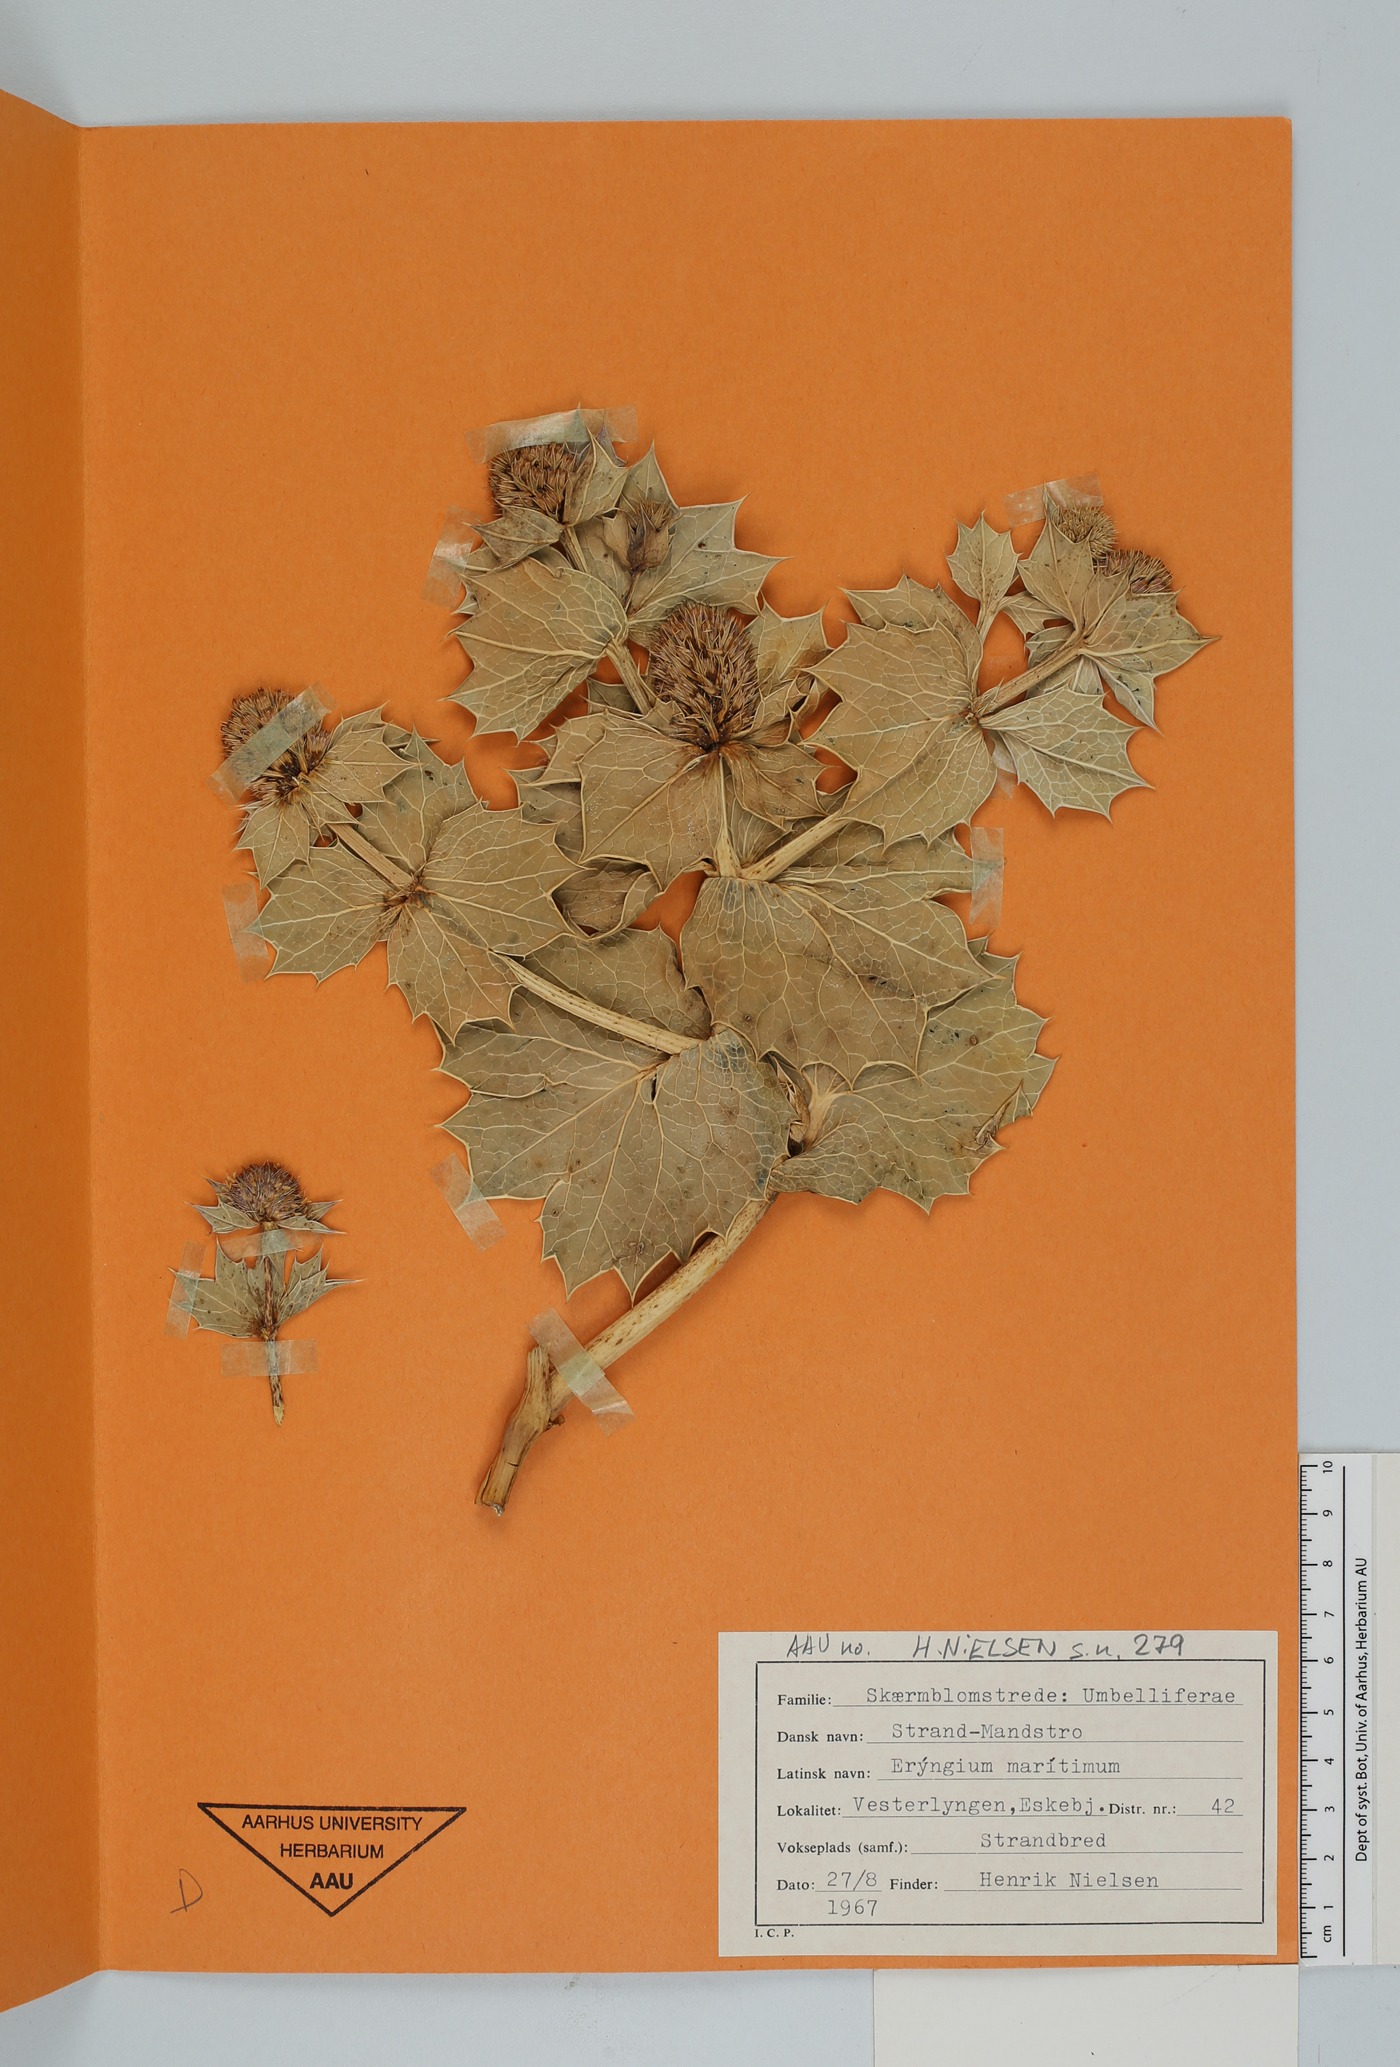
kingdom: Plantae
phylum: Tracheophyta
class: Magnoliopsida
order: Apiales
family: Apiaceae
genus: Eryngium
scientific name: Eryngium maritimum
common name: Sea-holly
